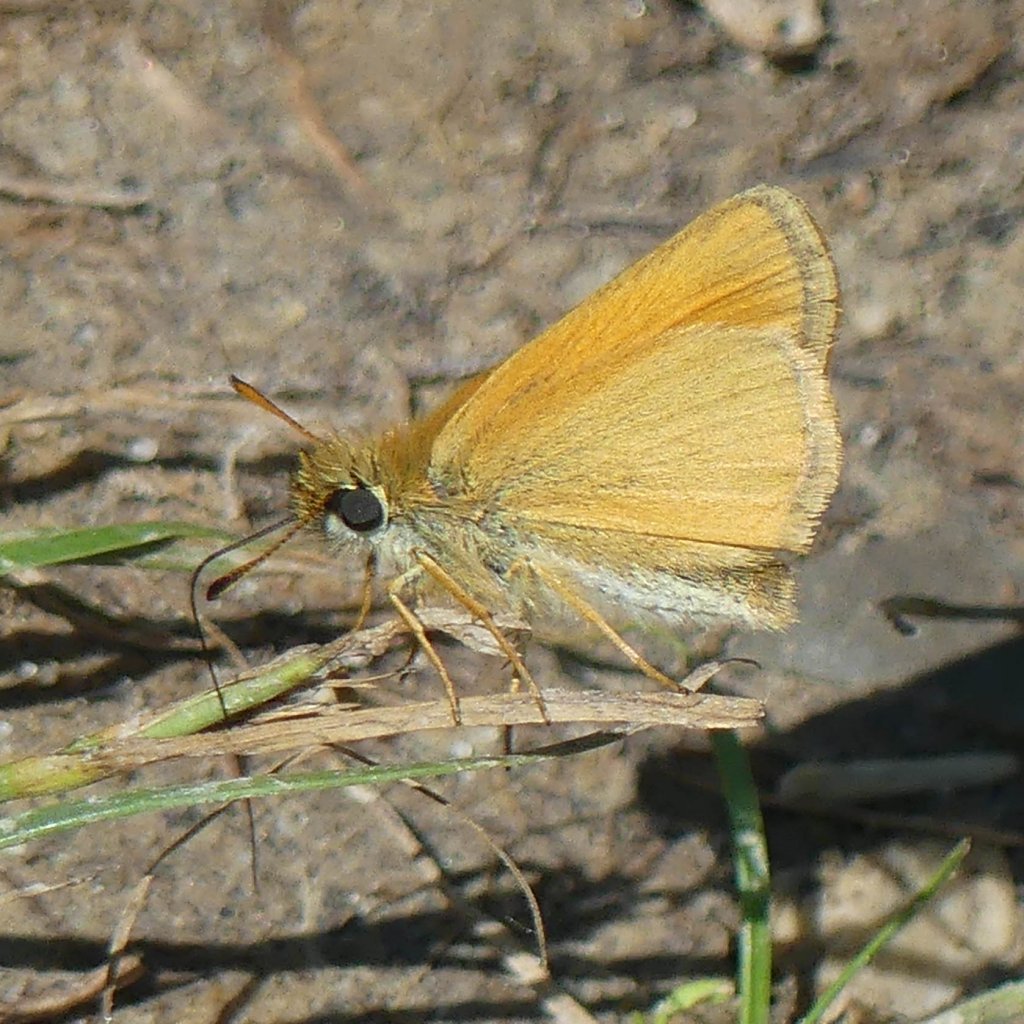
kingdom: Animalia
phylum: Arthropoda
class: Insecta
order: Lepidoptera
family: Hesperiidae
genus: Thymelicus
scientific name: Thymelicus lineola
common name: European Skipper
